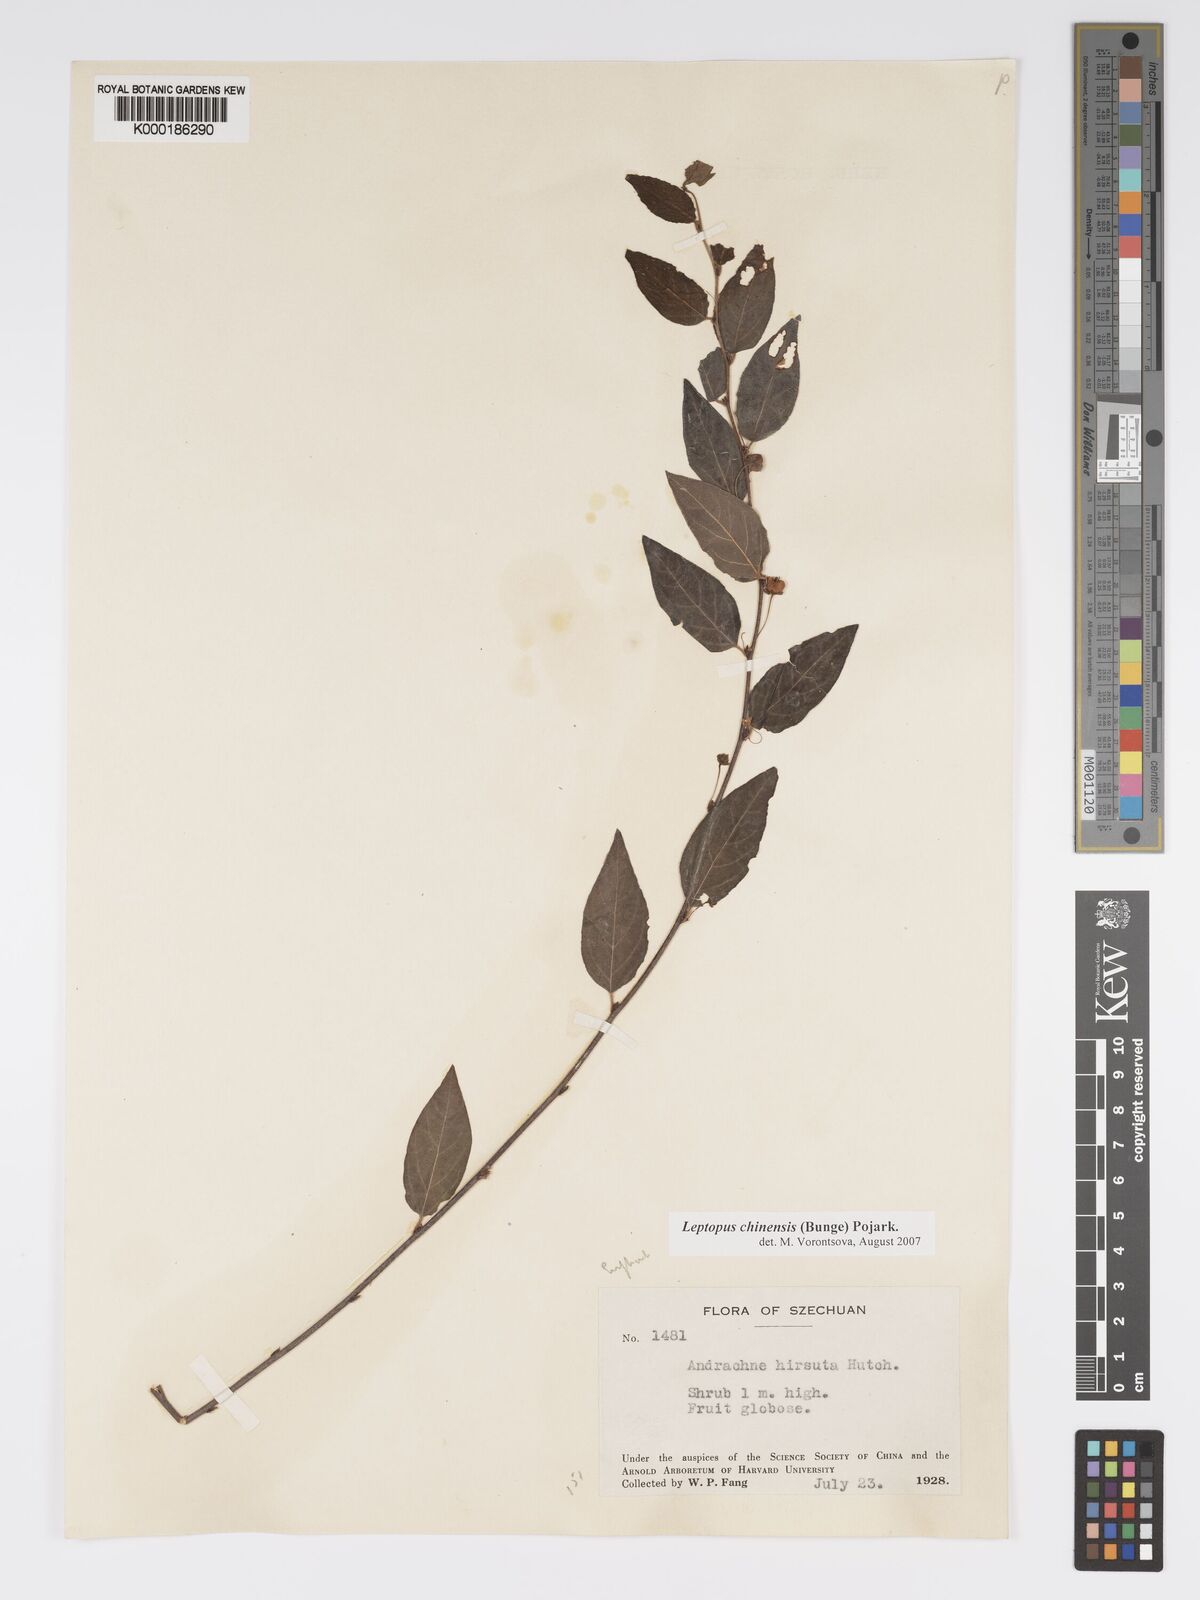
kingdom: Plantae
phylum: Tracheophyta
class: Magnoliopsida
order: Malpighiales
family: Phyllanthaceae
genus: Leptopus
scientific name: Leptopus chinensis
